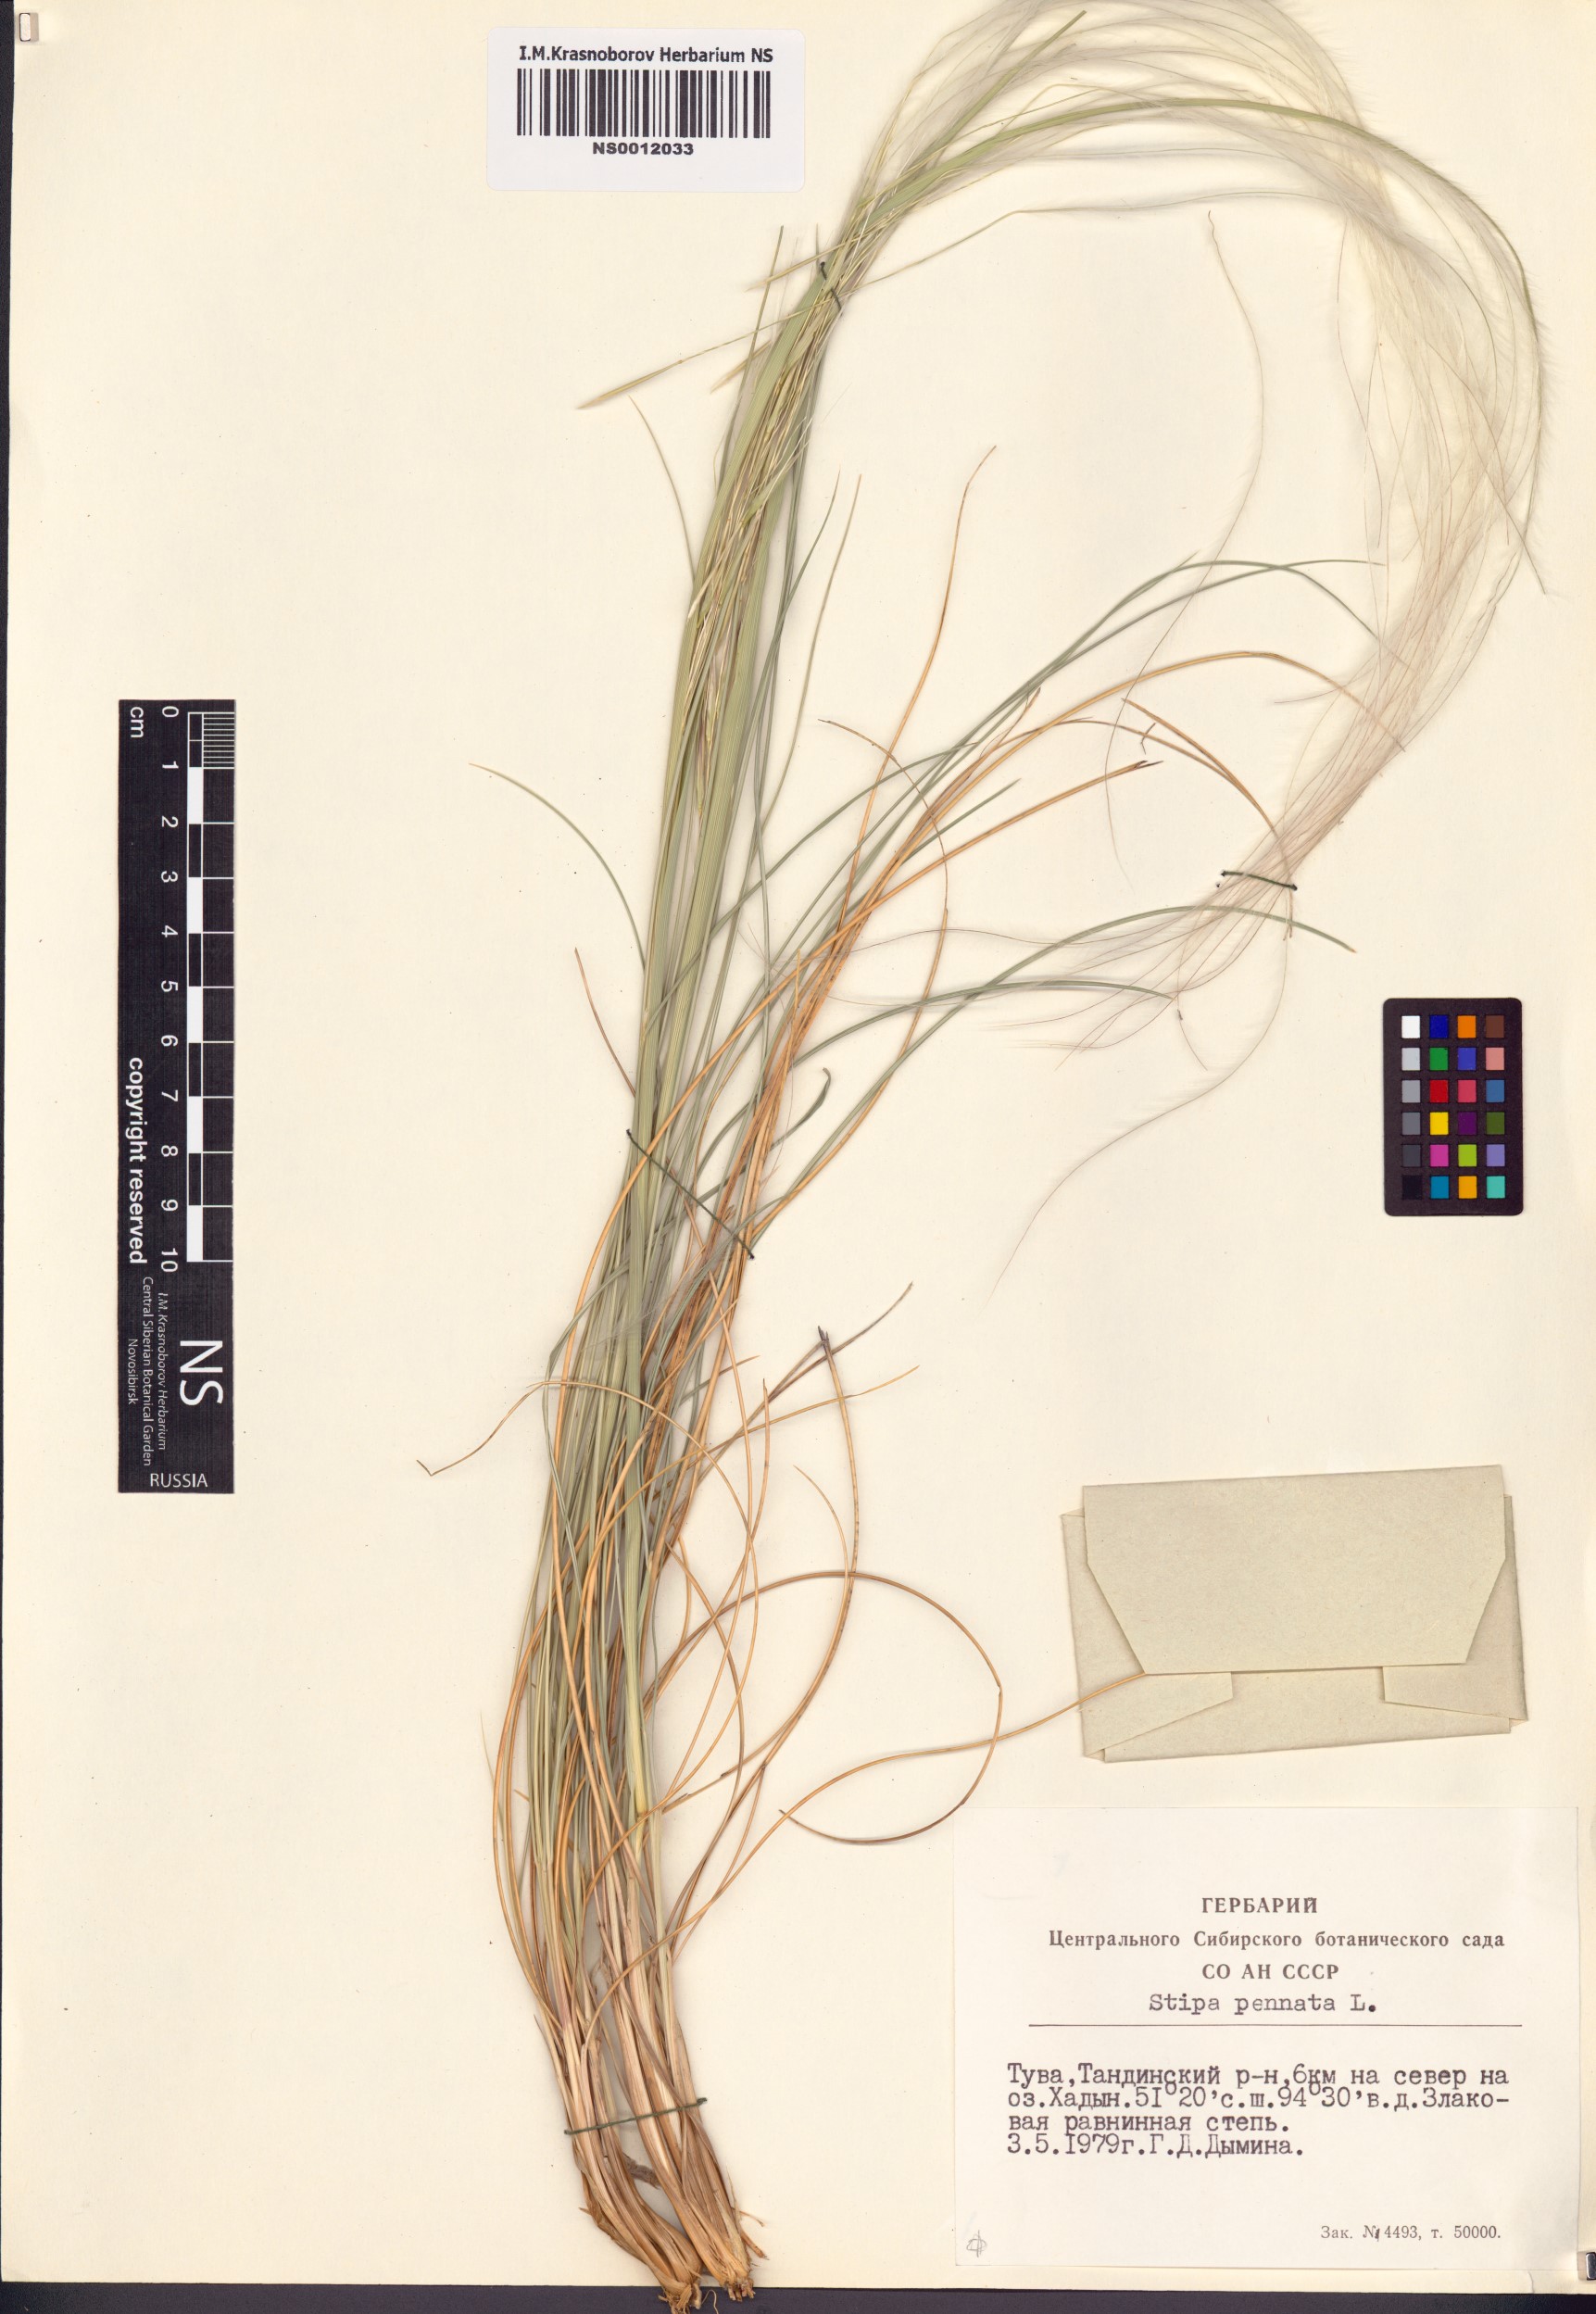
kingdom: Plantae
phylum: Tracheophyta
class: Liliopsida
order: Poales
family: Poaceae
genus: Stipa
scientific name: Stipa pennata
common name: European feather grass
